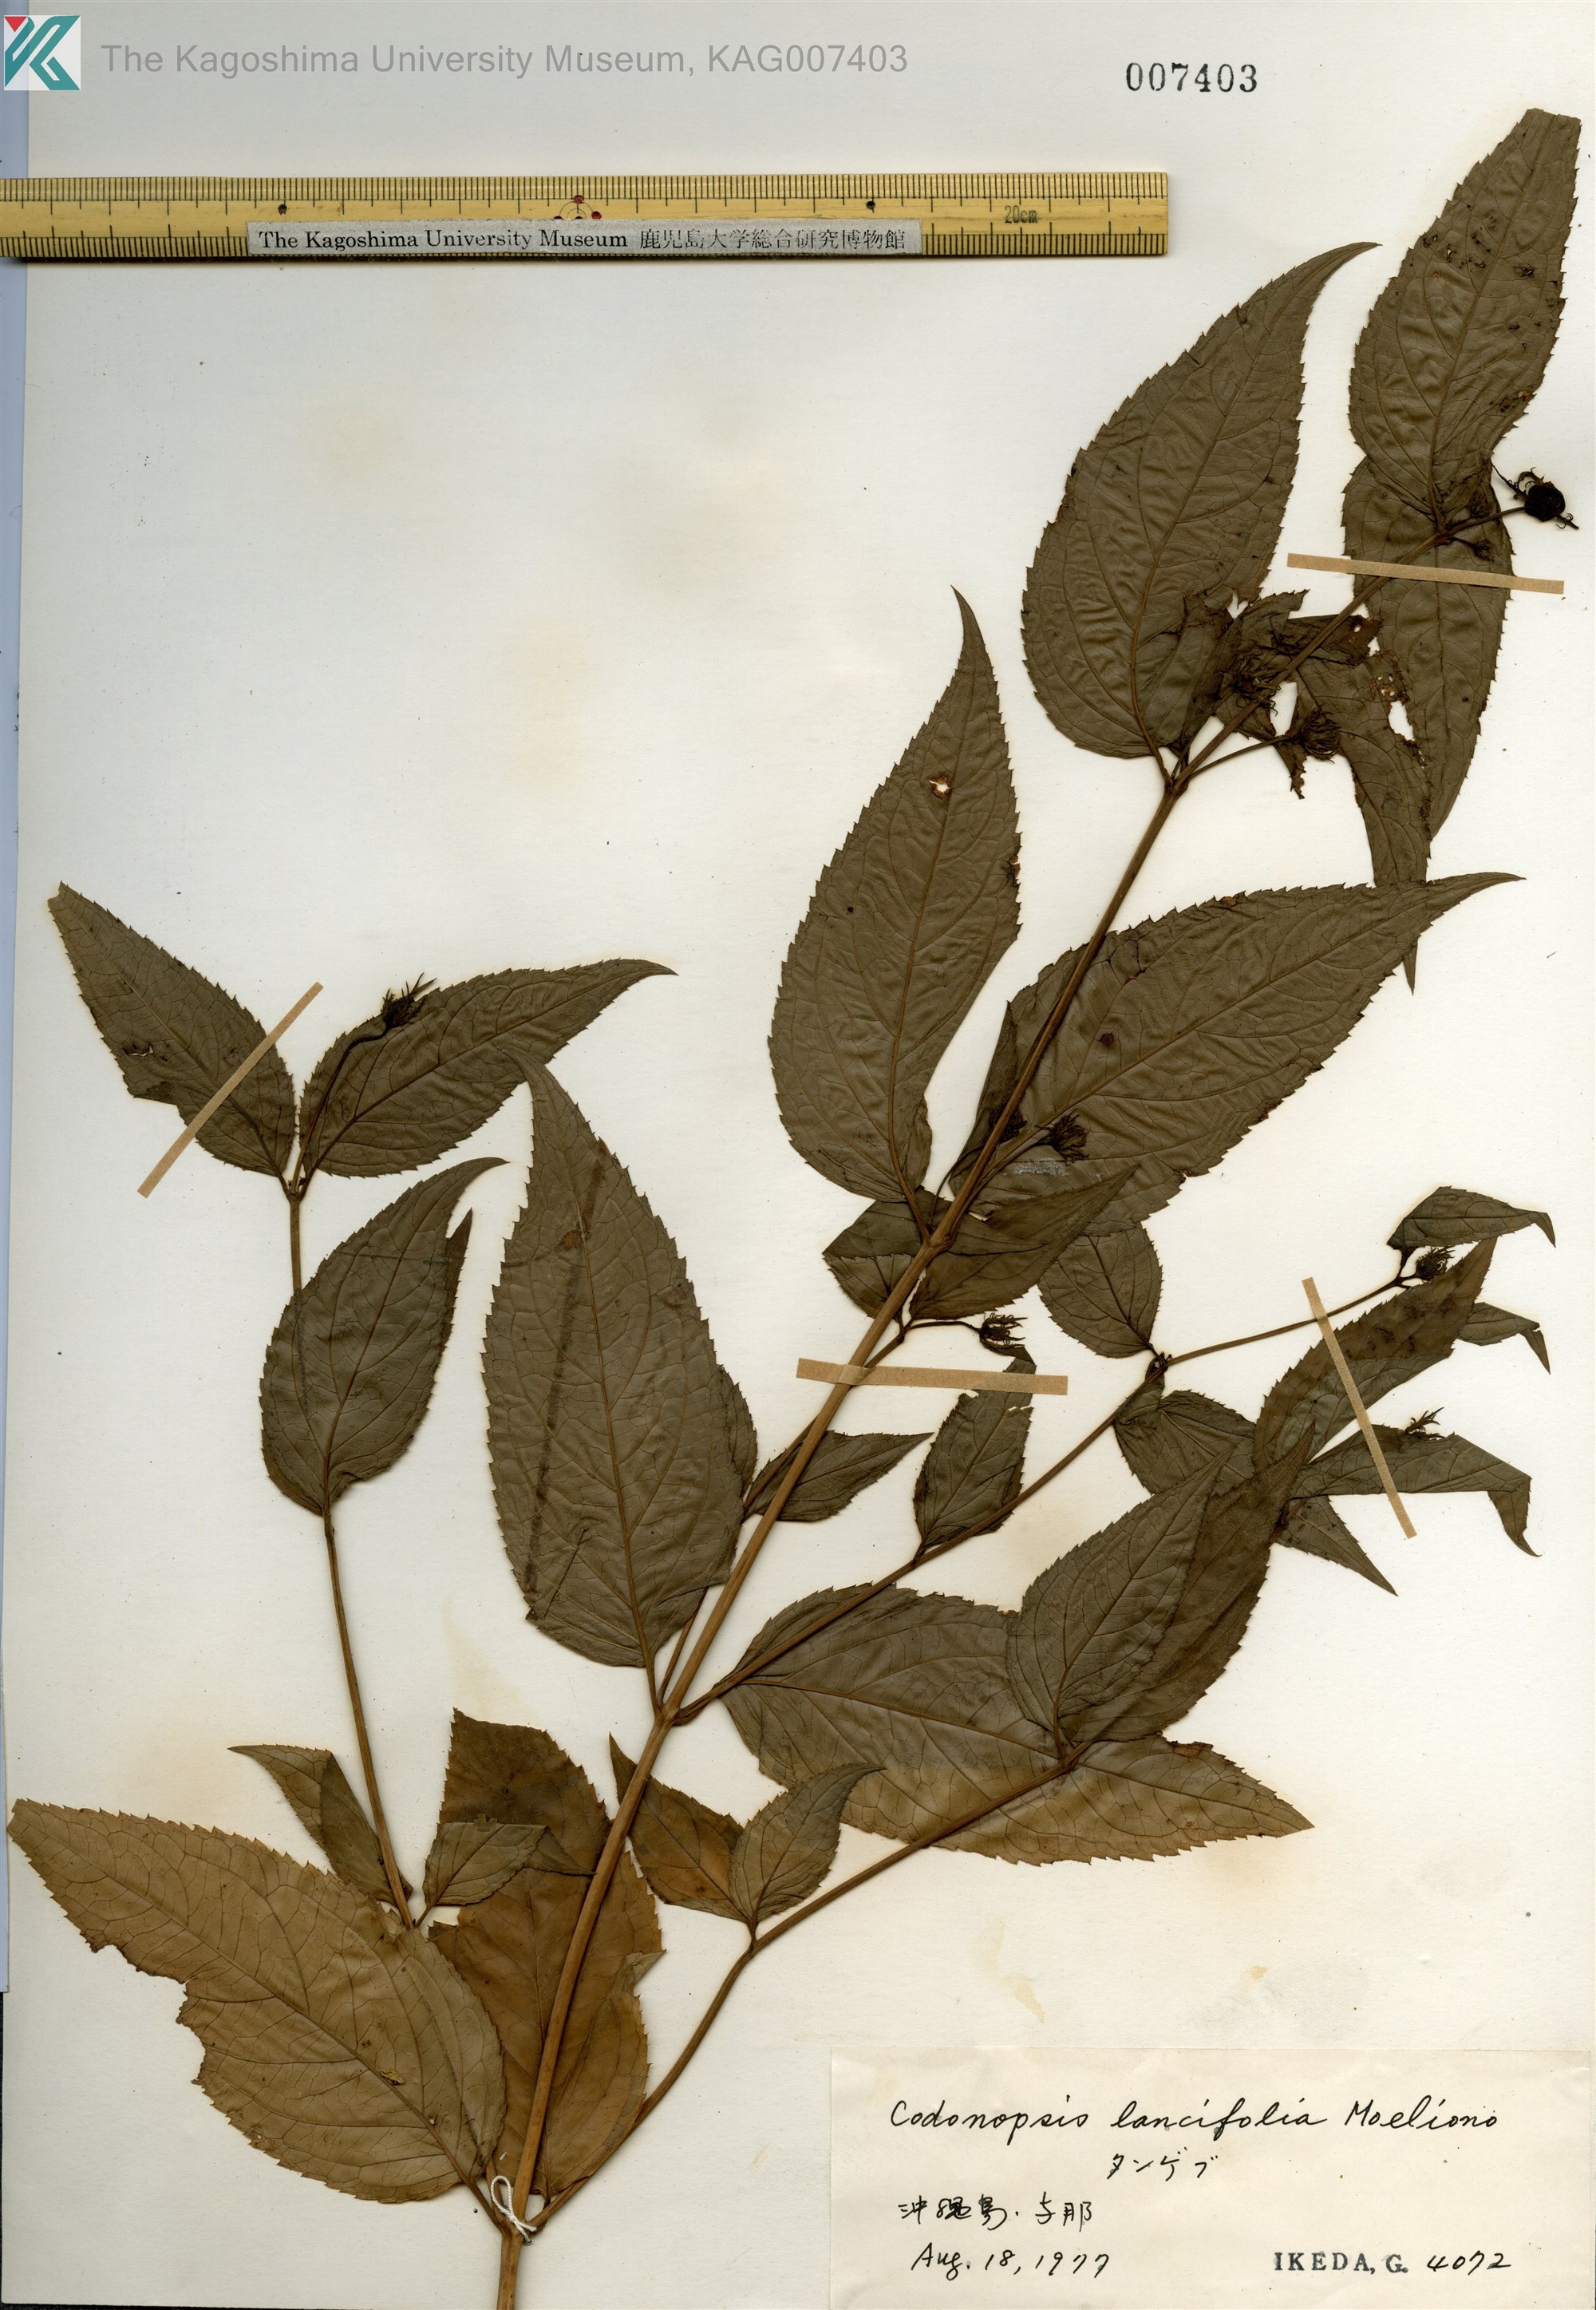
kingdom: Plantae
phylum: Tracheophyta
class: Magnoliopsida
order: Asterales
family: Campanulaceae
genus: Cyclocodon
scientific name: Cyclocodon lancifolius
